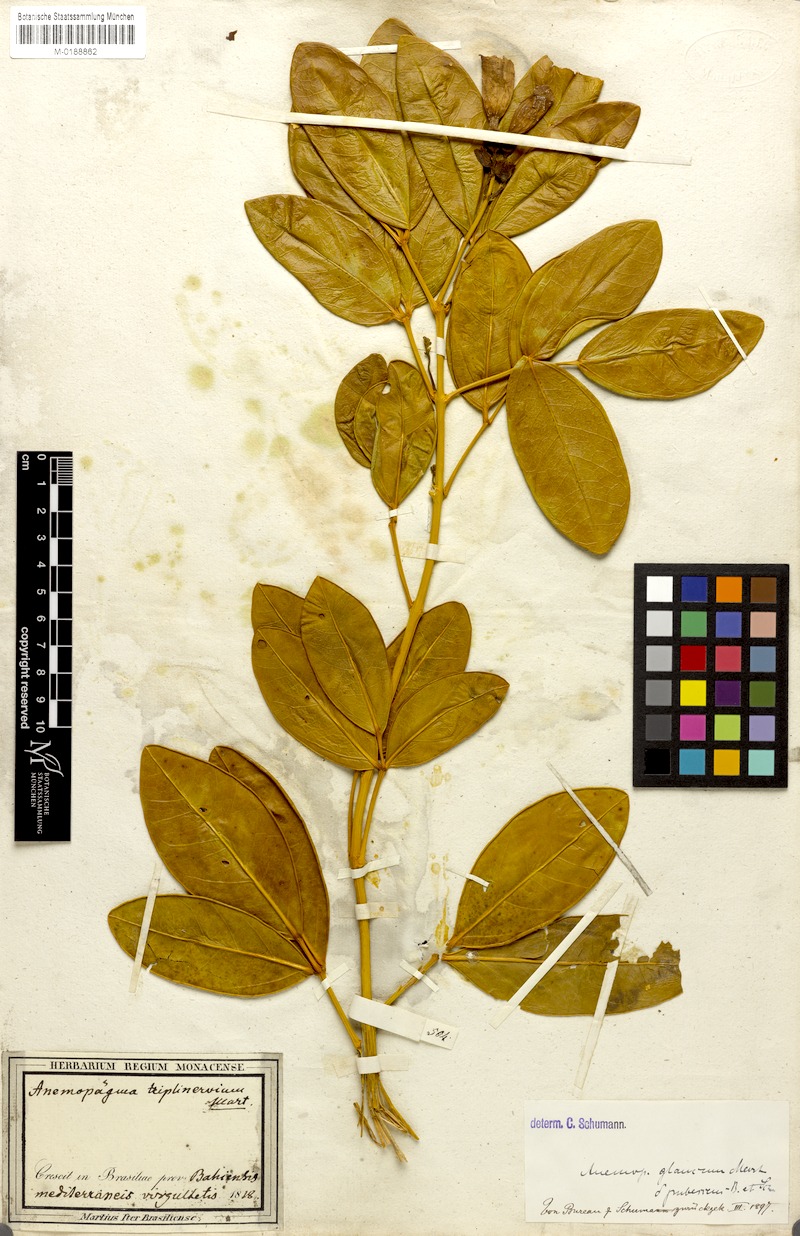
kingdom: Plantae
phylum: Tracheophyta
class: Magnoliopsida
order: Lamiales
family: Bignoniaceae
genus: Anemopaegma
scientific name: Anemopaegma glaucum
